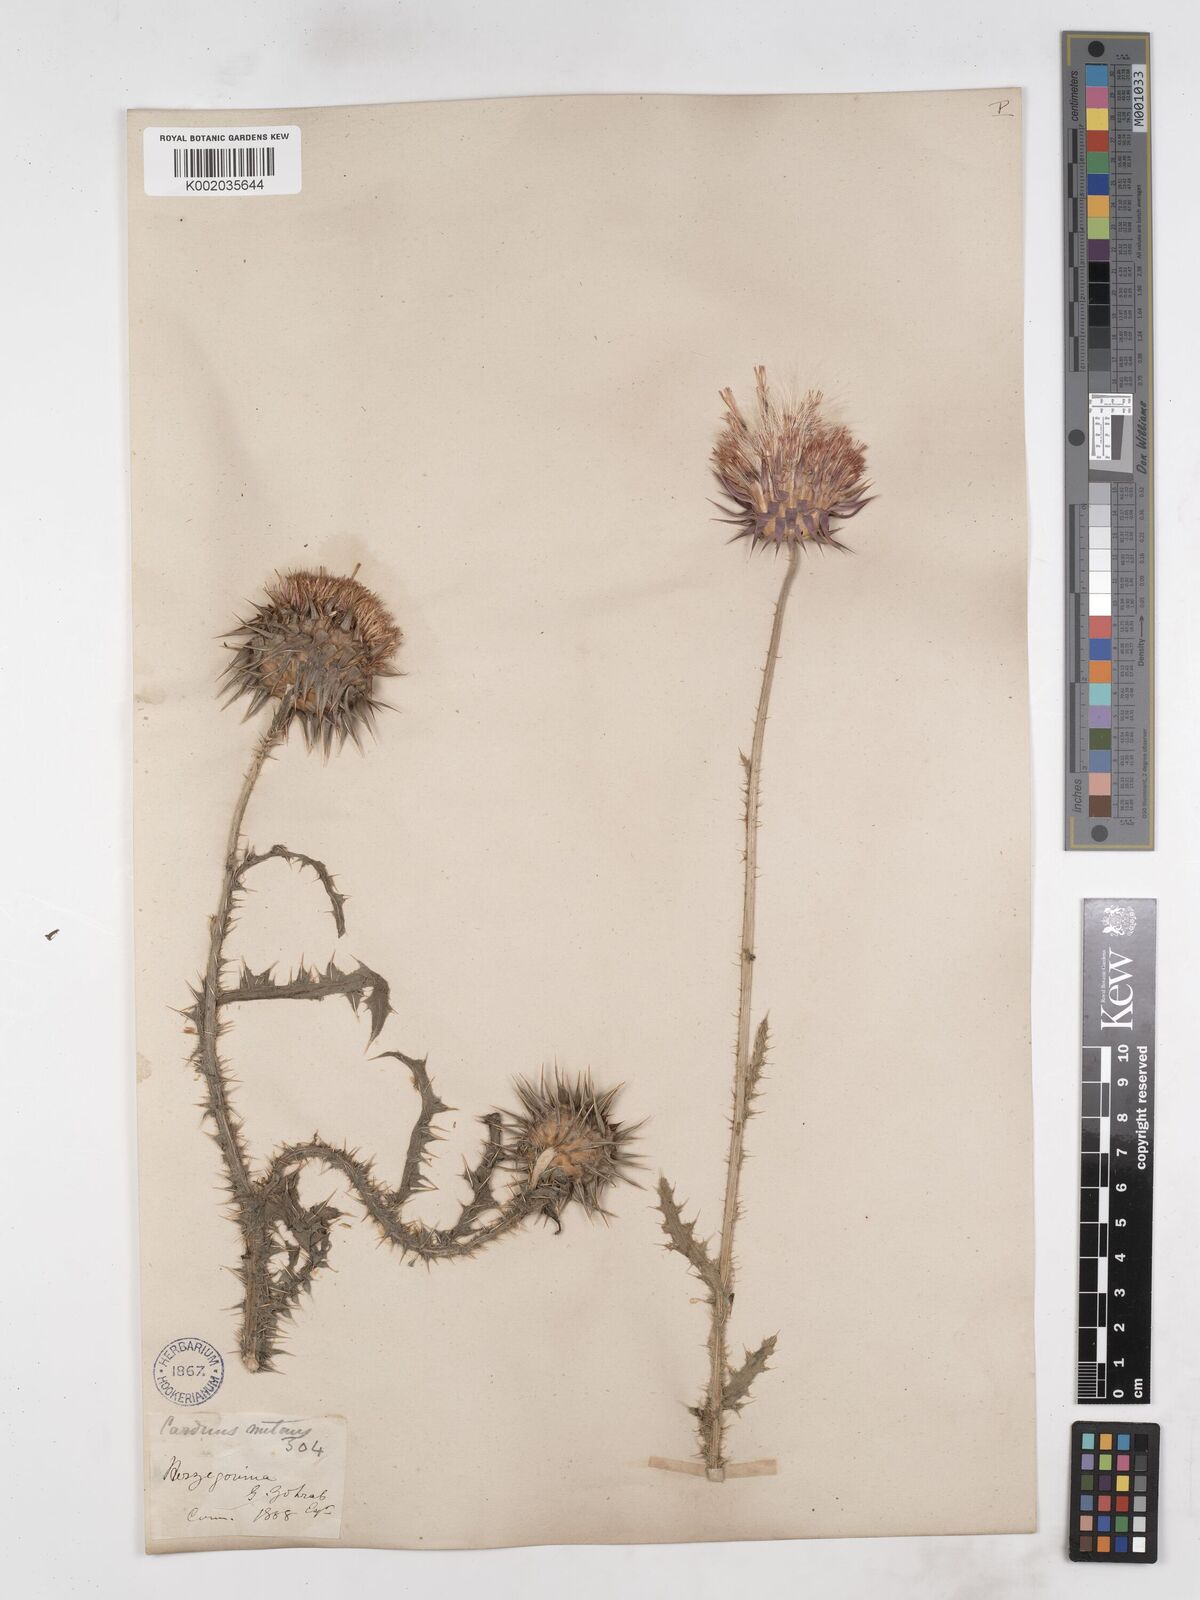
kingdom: Plantae
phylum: Tracheophyta
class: Magnoliopsida
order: Asterales
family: Asteraceae
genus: Carduus
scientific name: Carduus nutans
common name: Musk thistle
